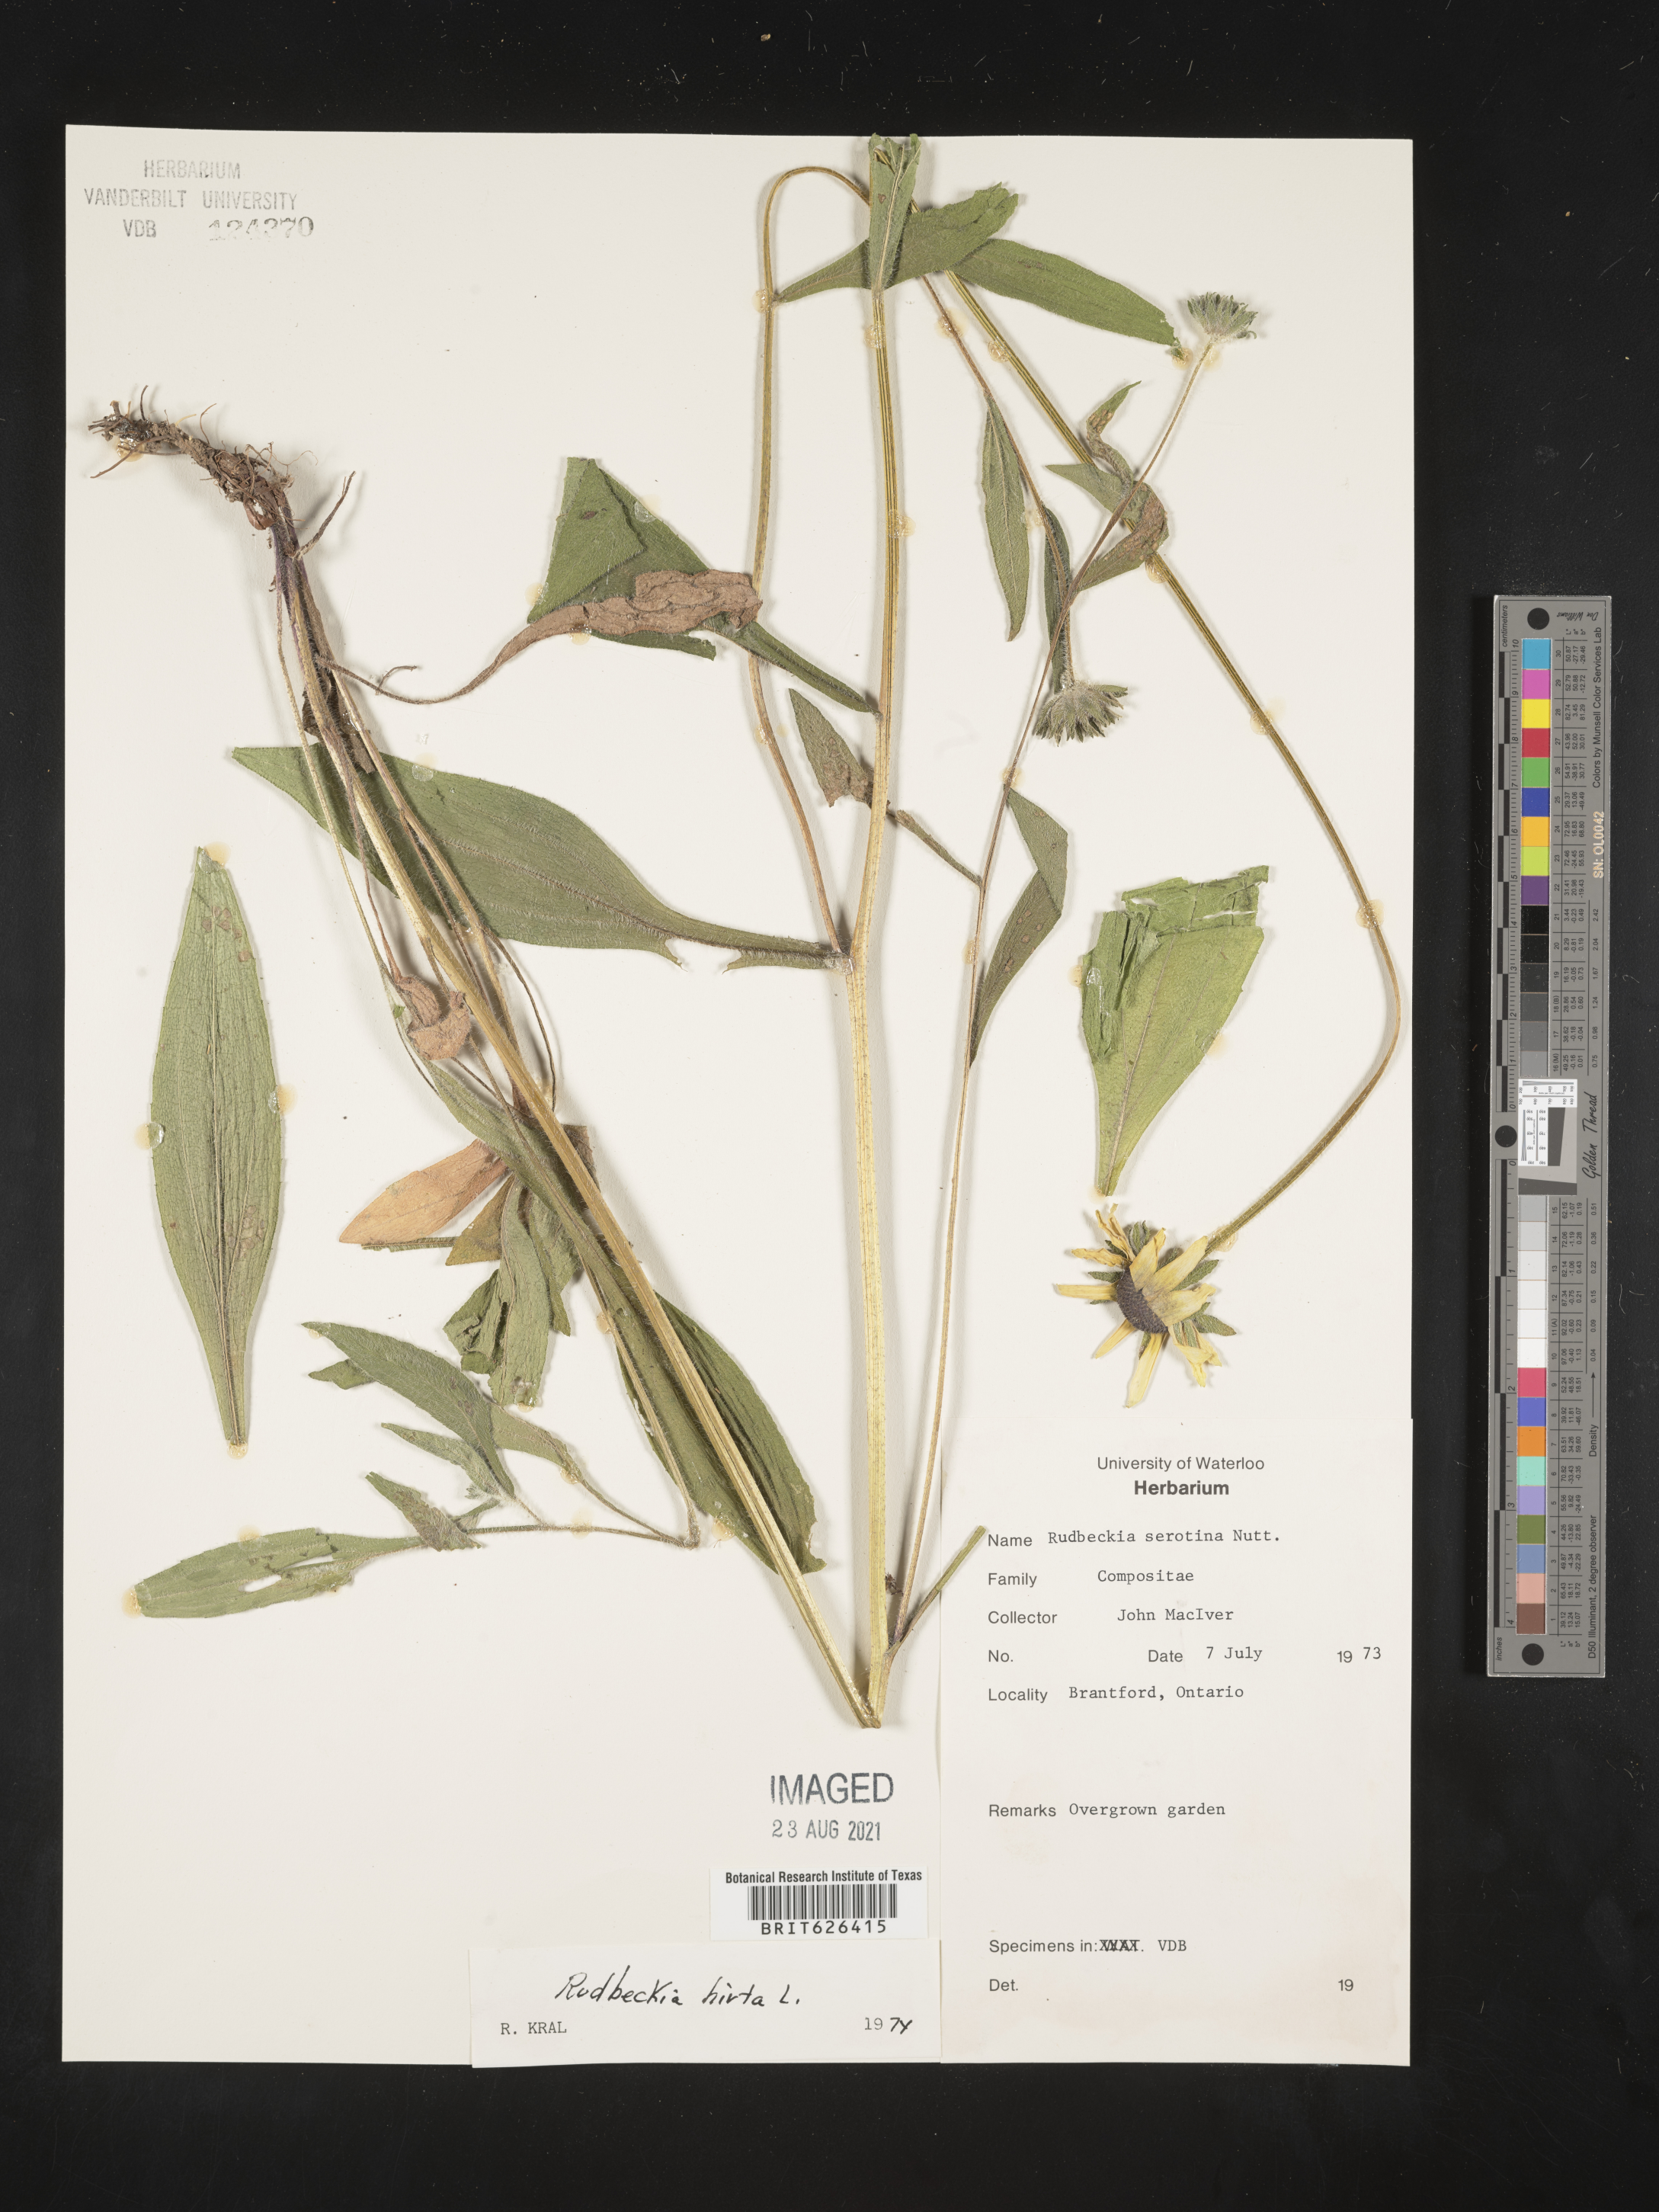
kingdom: Plantae
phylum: Tracheophyta
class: Magnoliopsida
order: Asterales
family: Asteraceae
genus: Rudbeckia
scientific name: Rudbeckia hirta
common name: Black-eyed-susan
